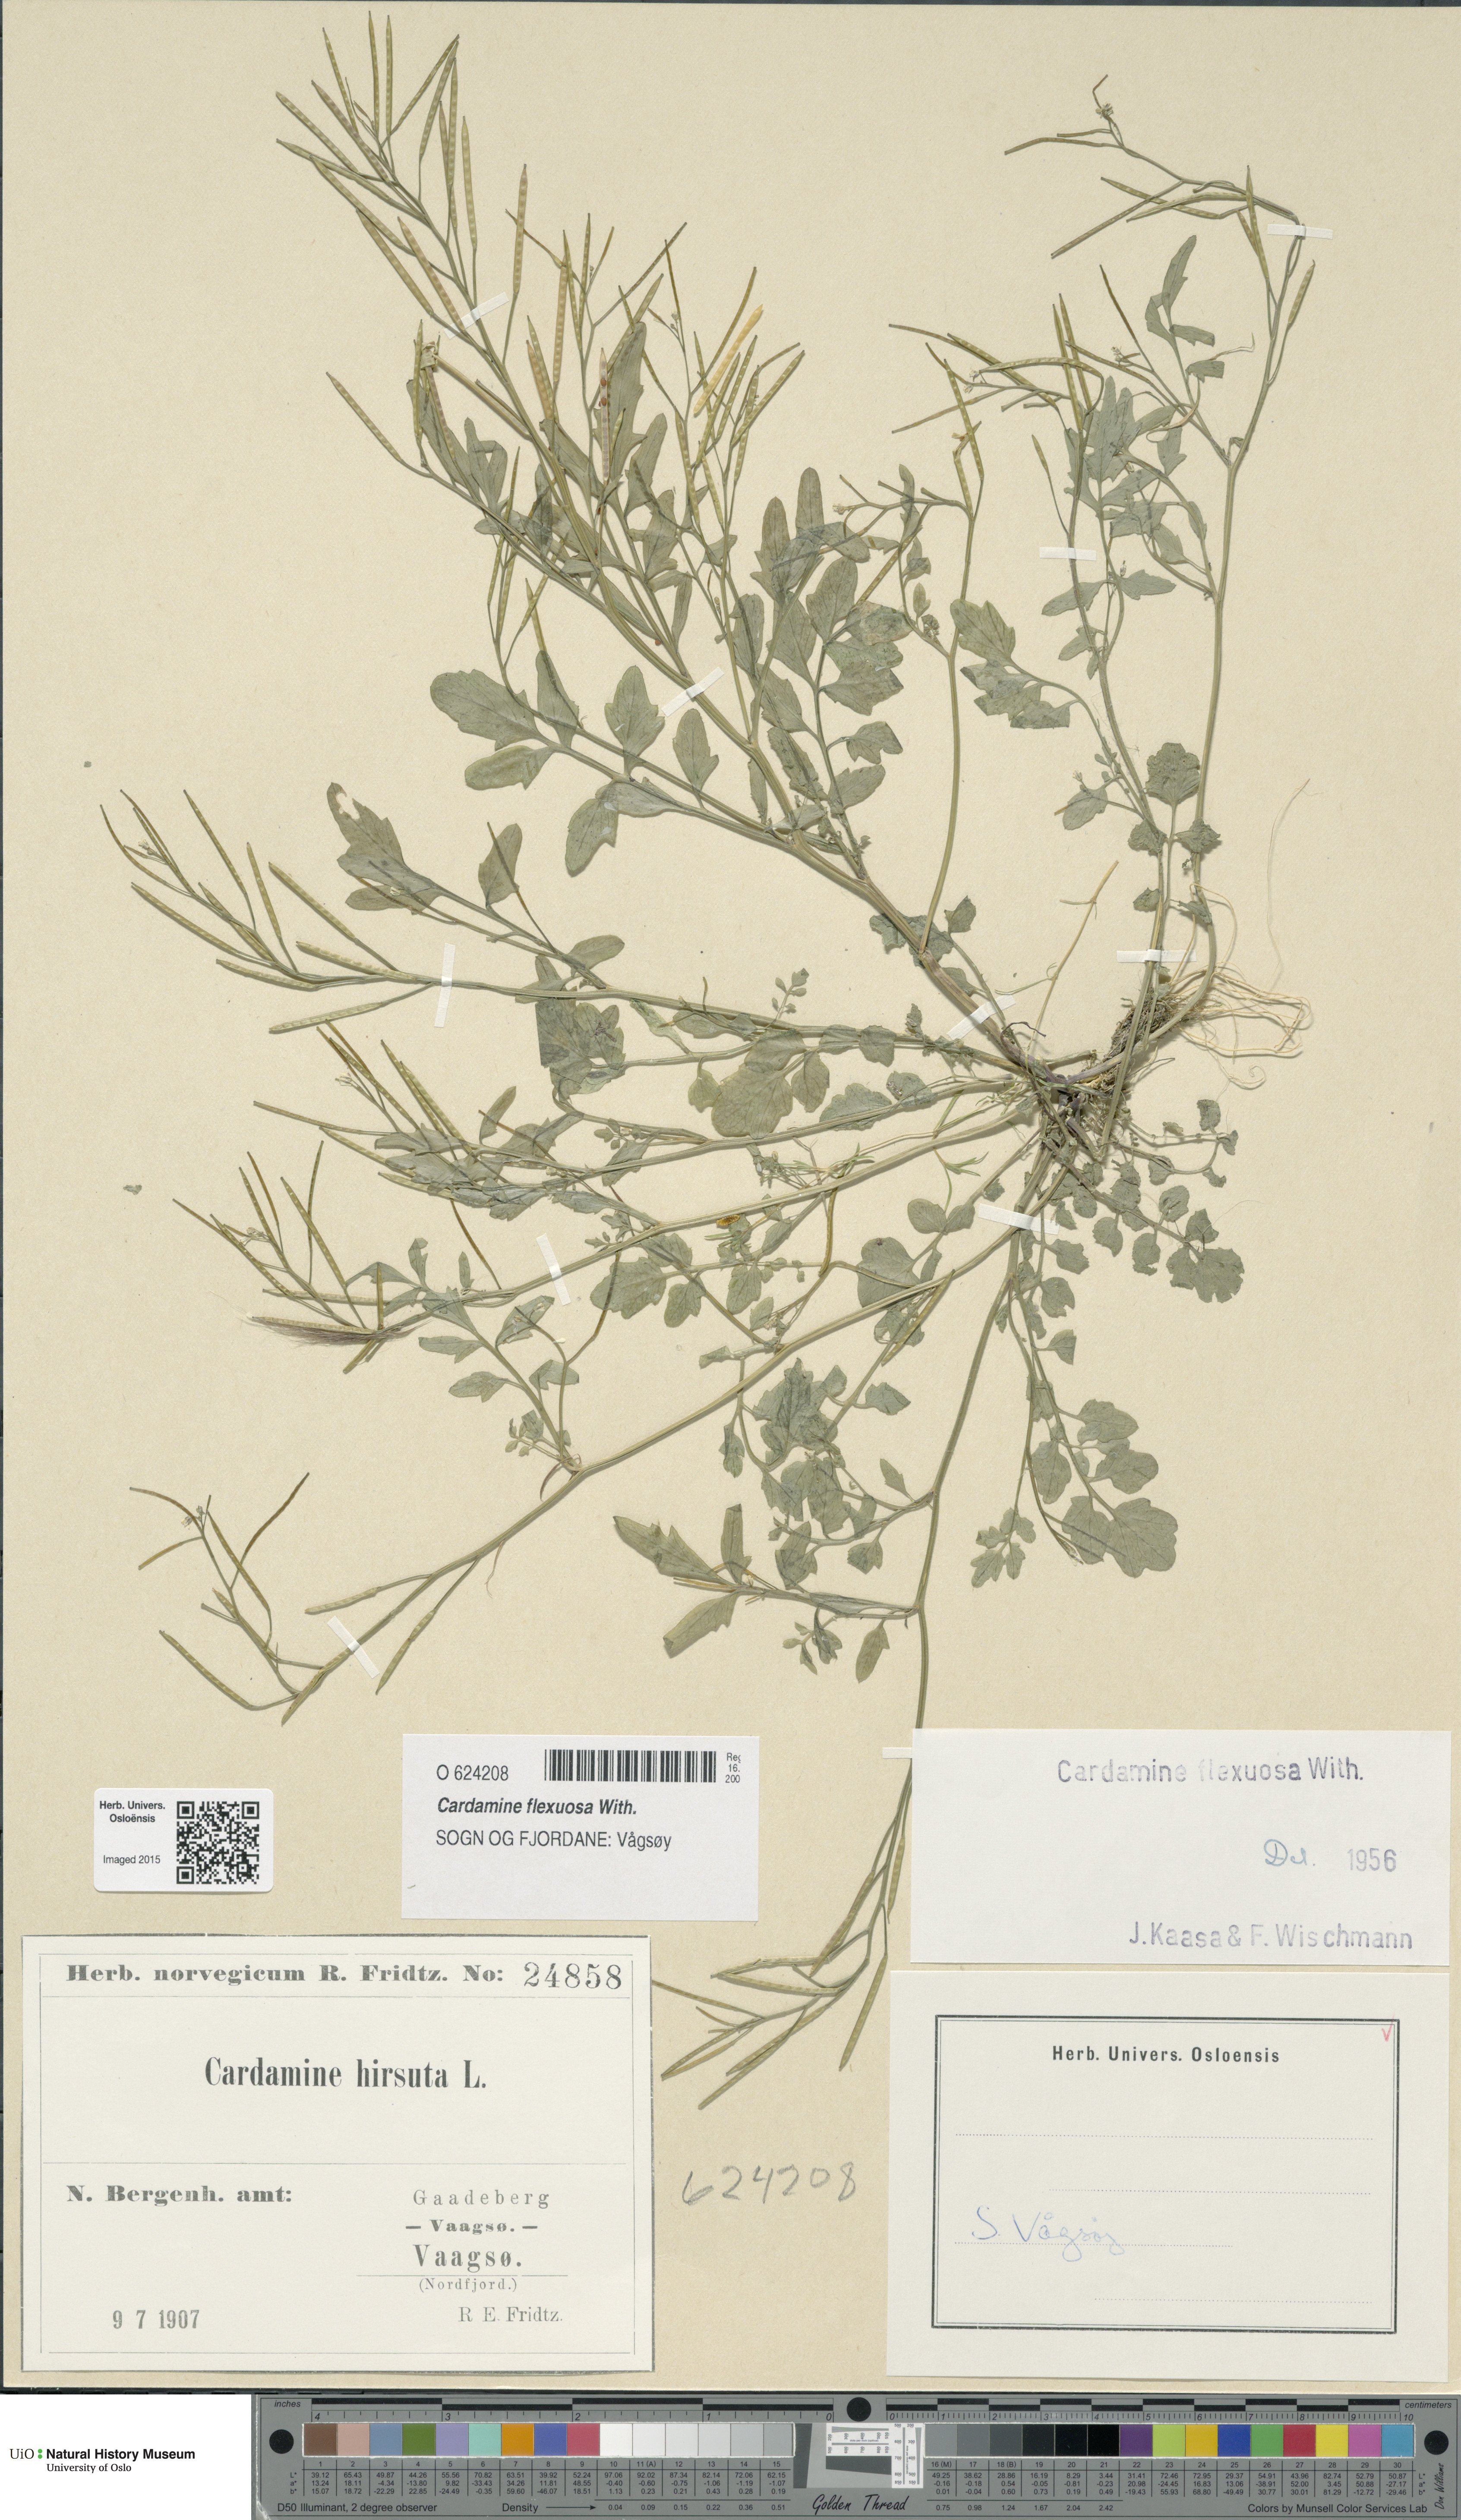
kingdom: Plantae
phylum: Tracheophyta
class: Magnoliopsida
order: Brassicales
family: Brassicaceae
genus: Cardamine
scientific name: Cardamine flexuosa
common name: Woodland bittercress
